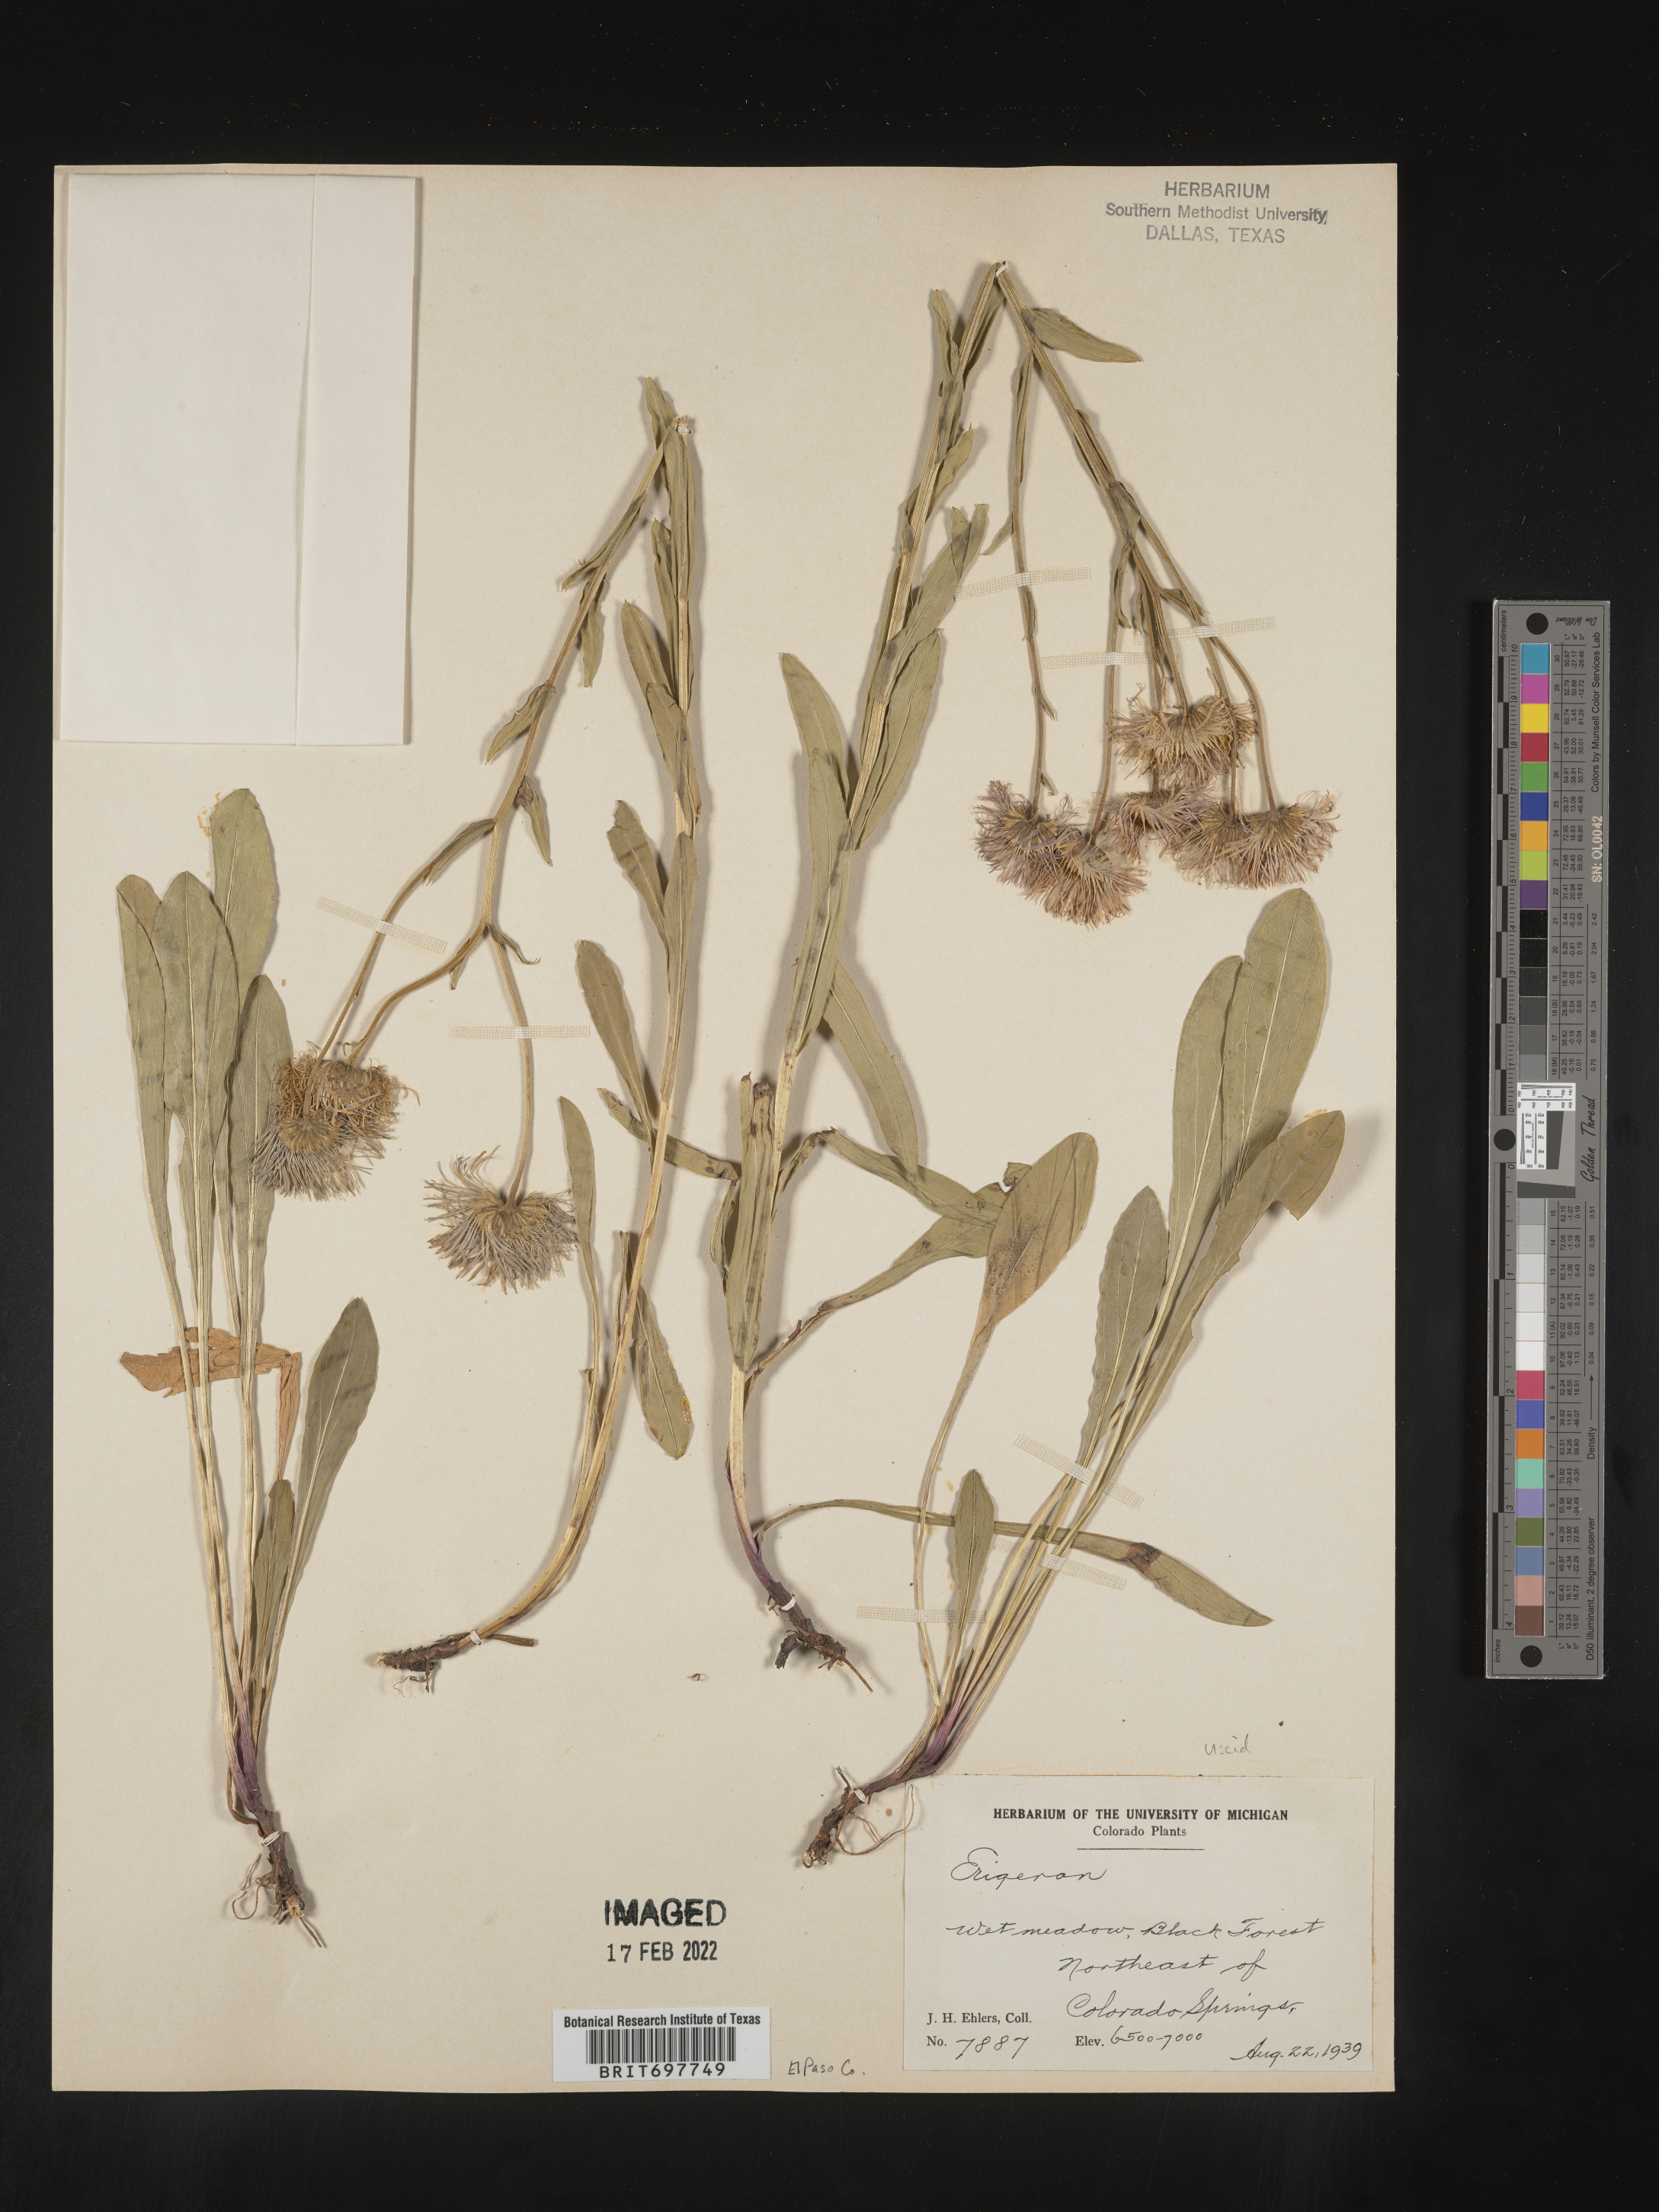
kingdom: Plantae
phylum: Tracheophyta
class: Magnoliopsida
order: Asterales
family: Asteraceae
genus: Erigeron
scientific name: Erigeron formosissimus
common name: Beautiful fleabane
